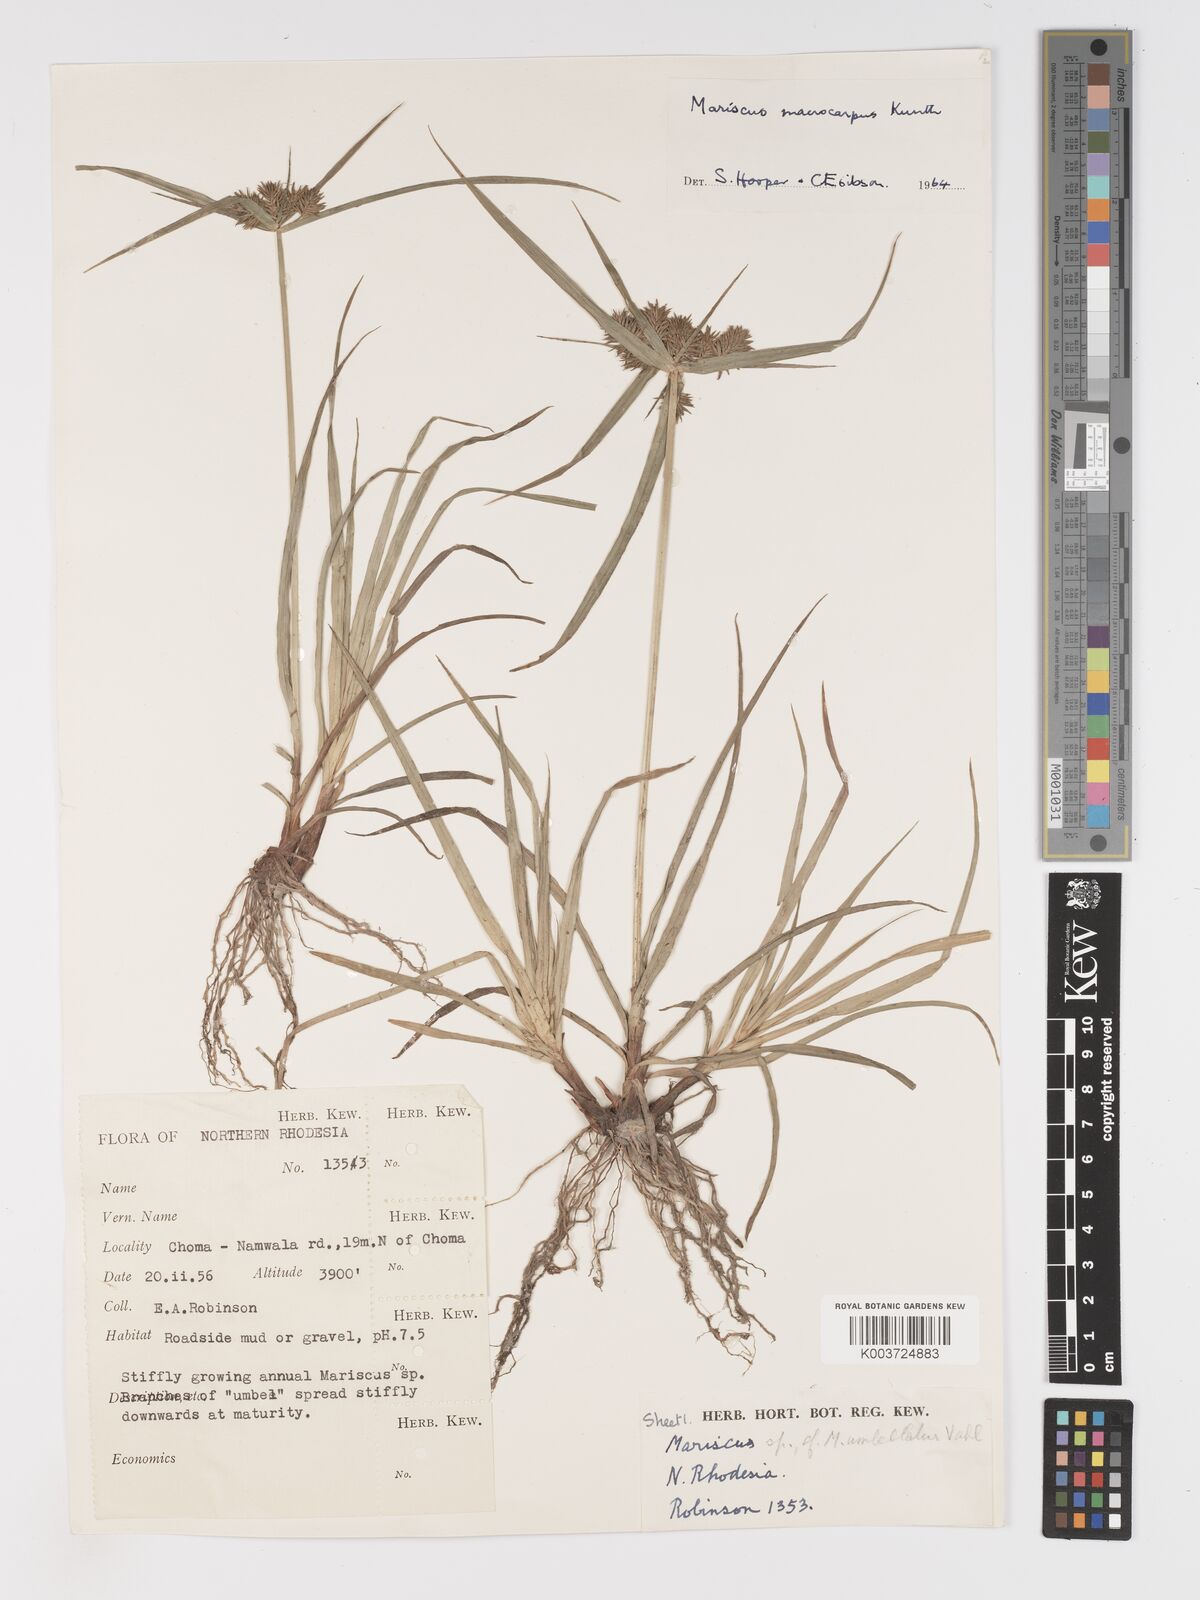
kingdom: Plantae
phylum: Tracheophyta
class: Liliopsida
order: Poales
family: Cyperaceae
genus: Cyperus
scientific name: Cyperus macrocarpus
